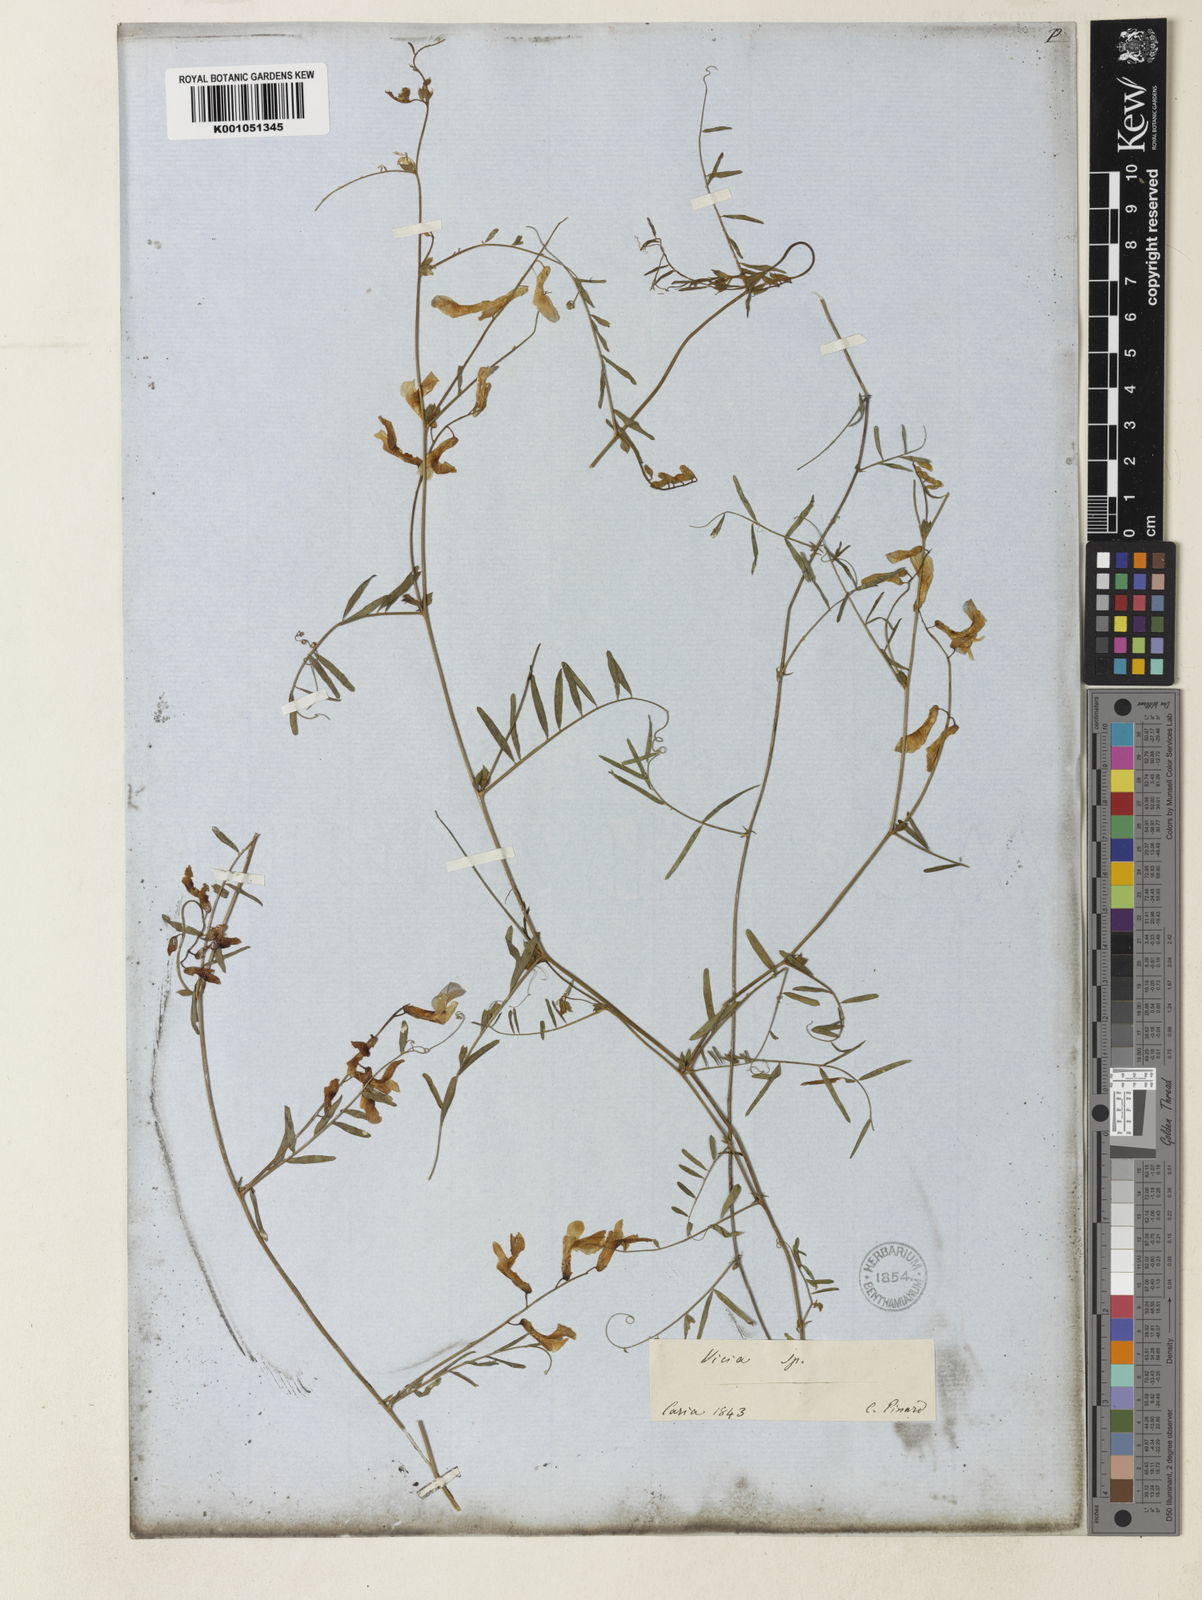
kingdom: Plantae
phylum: Tracheophyta
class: Magnoliopsida
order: Fabales
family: Fabaceae
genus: Vicia
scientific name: Vicia
